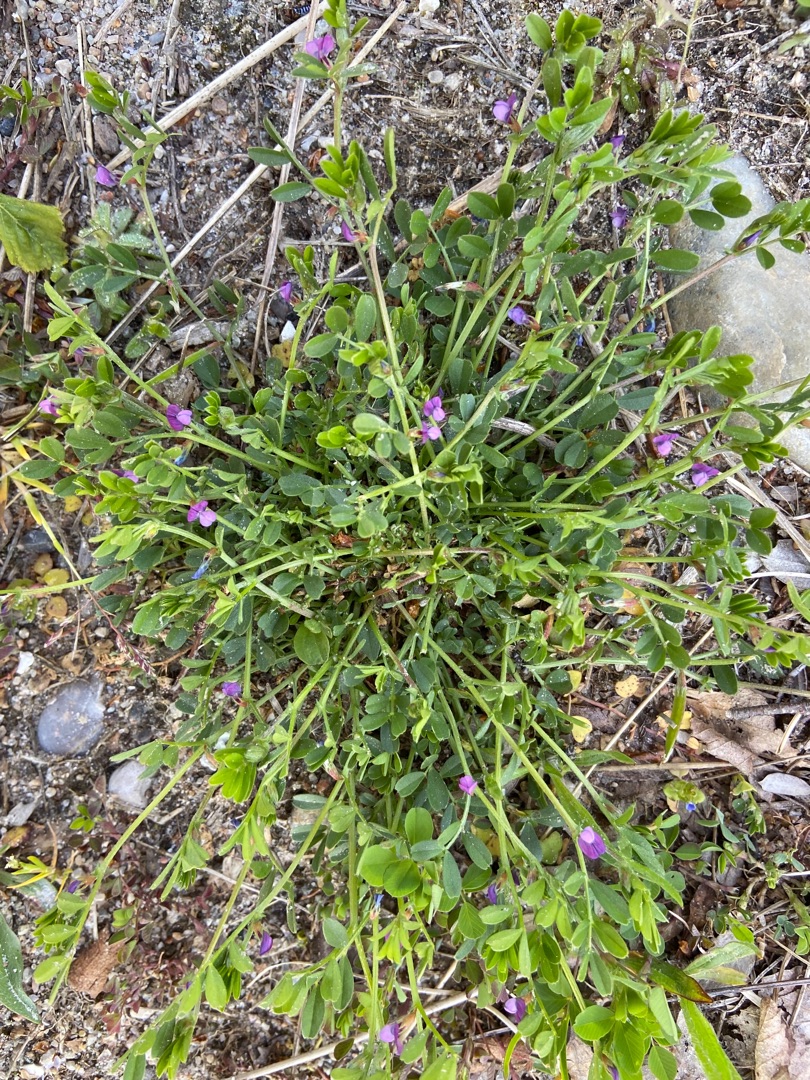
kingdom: Plantae
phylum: Tracheophyta
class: Magnoliopsida
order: Fabales
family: Fabaceae
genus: Vicia
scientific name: Vicia lathyroides
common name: Vår-vikke
